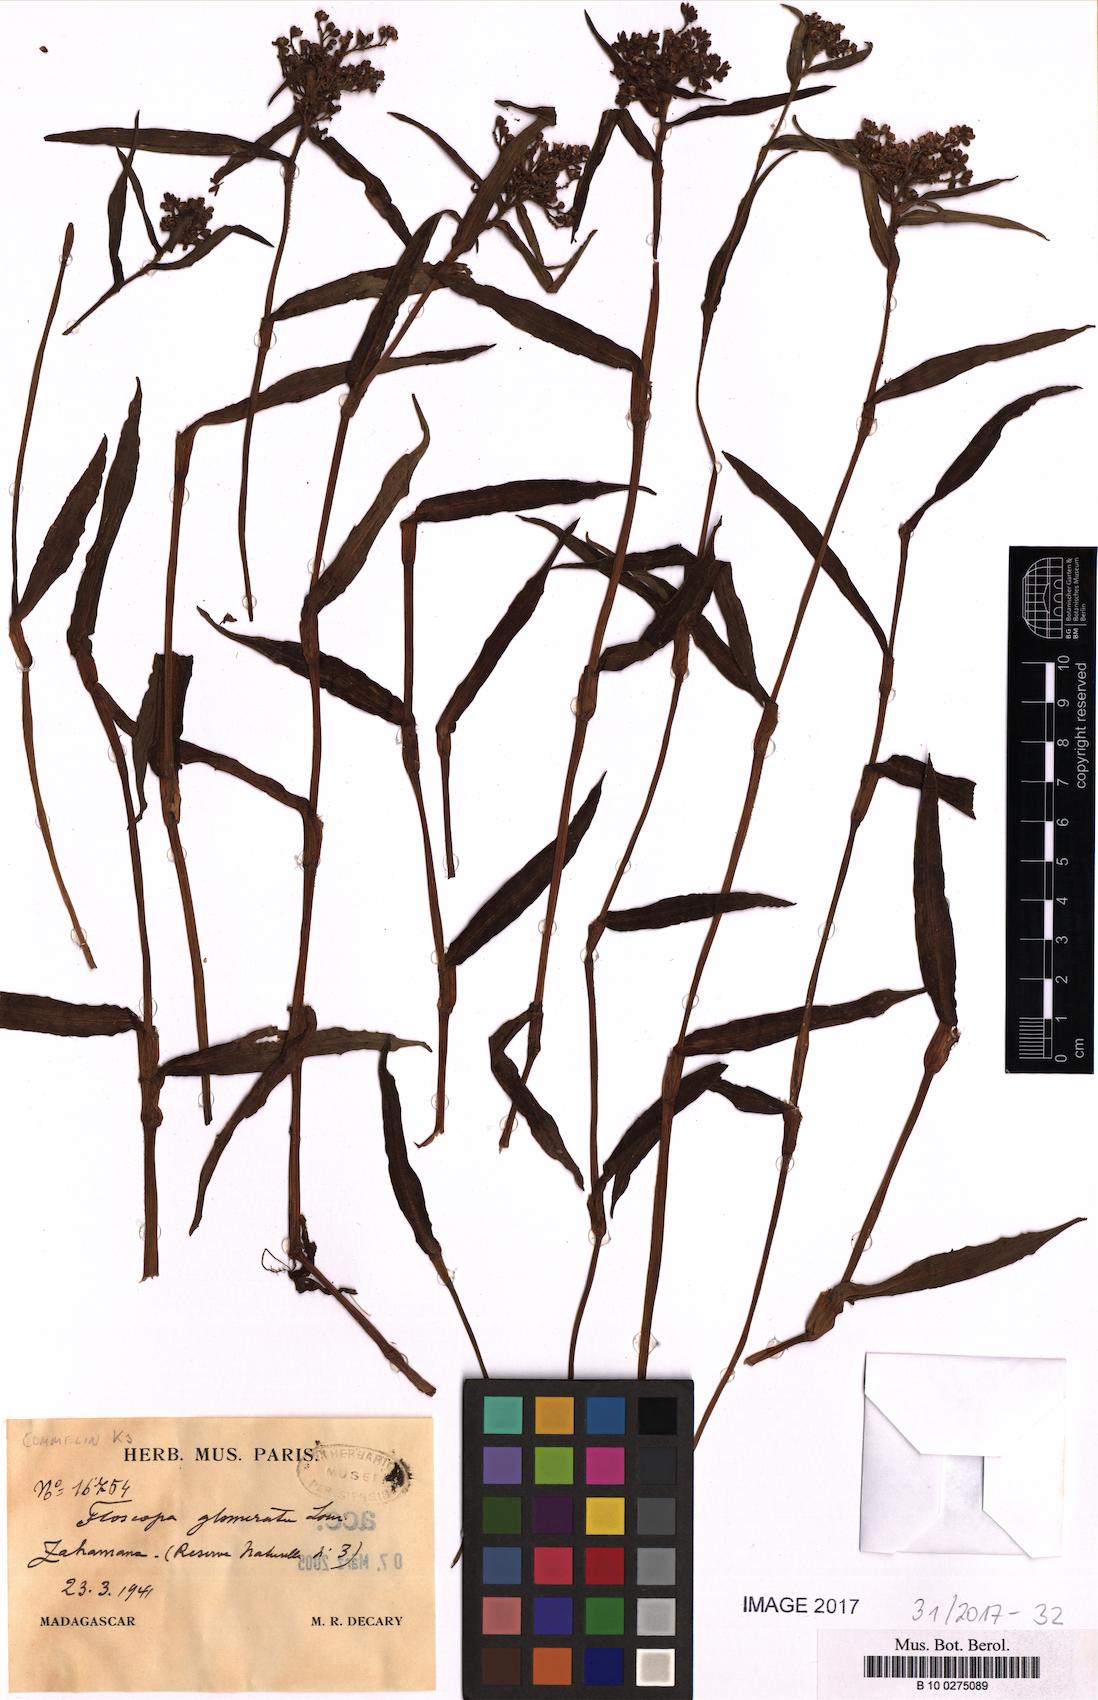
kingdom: Plantae
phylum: Tracheophyta
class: Liliopsida
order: Commelinales
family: Commelinaceae
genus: Floscopa
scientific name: Floscopa glomerata
